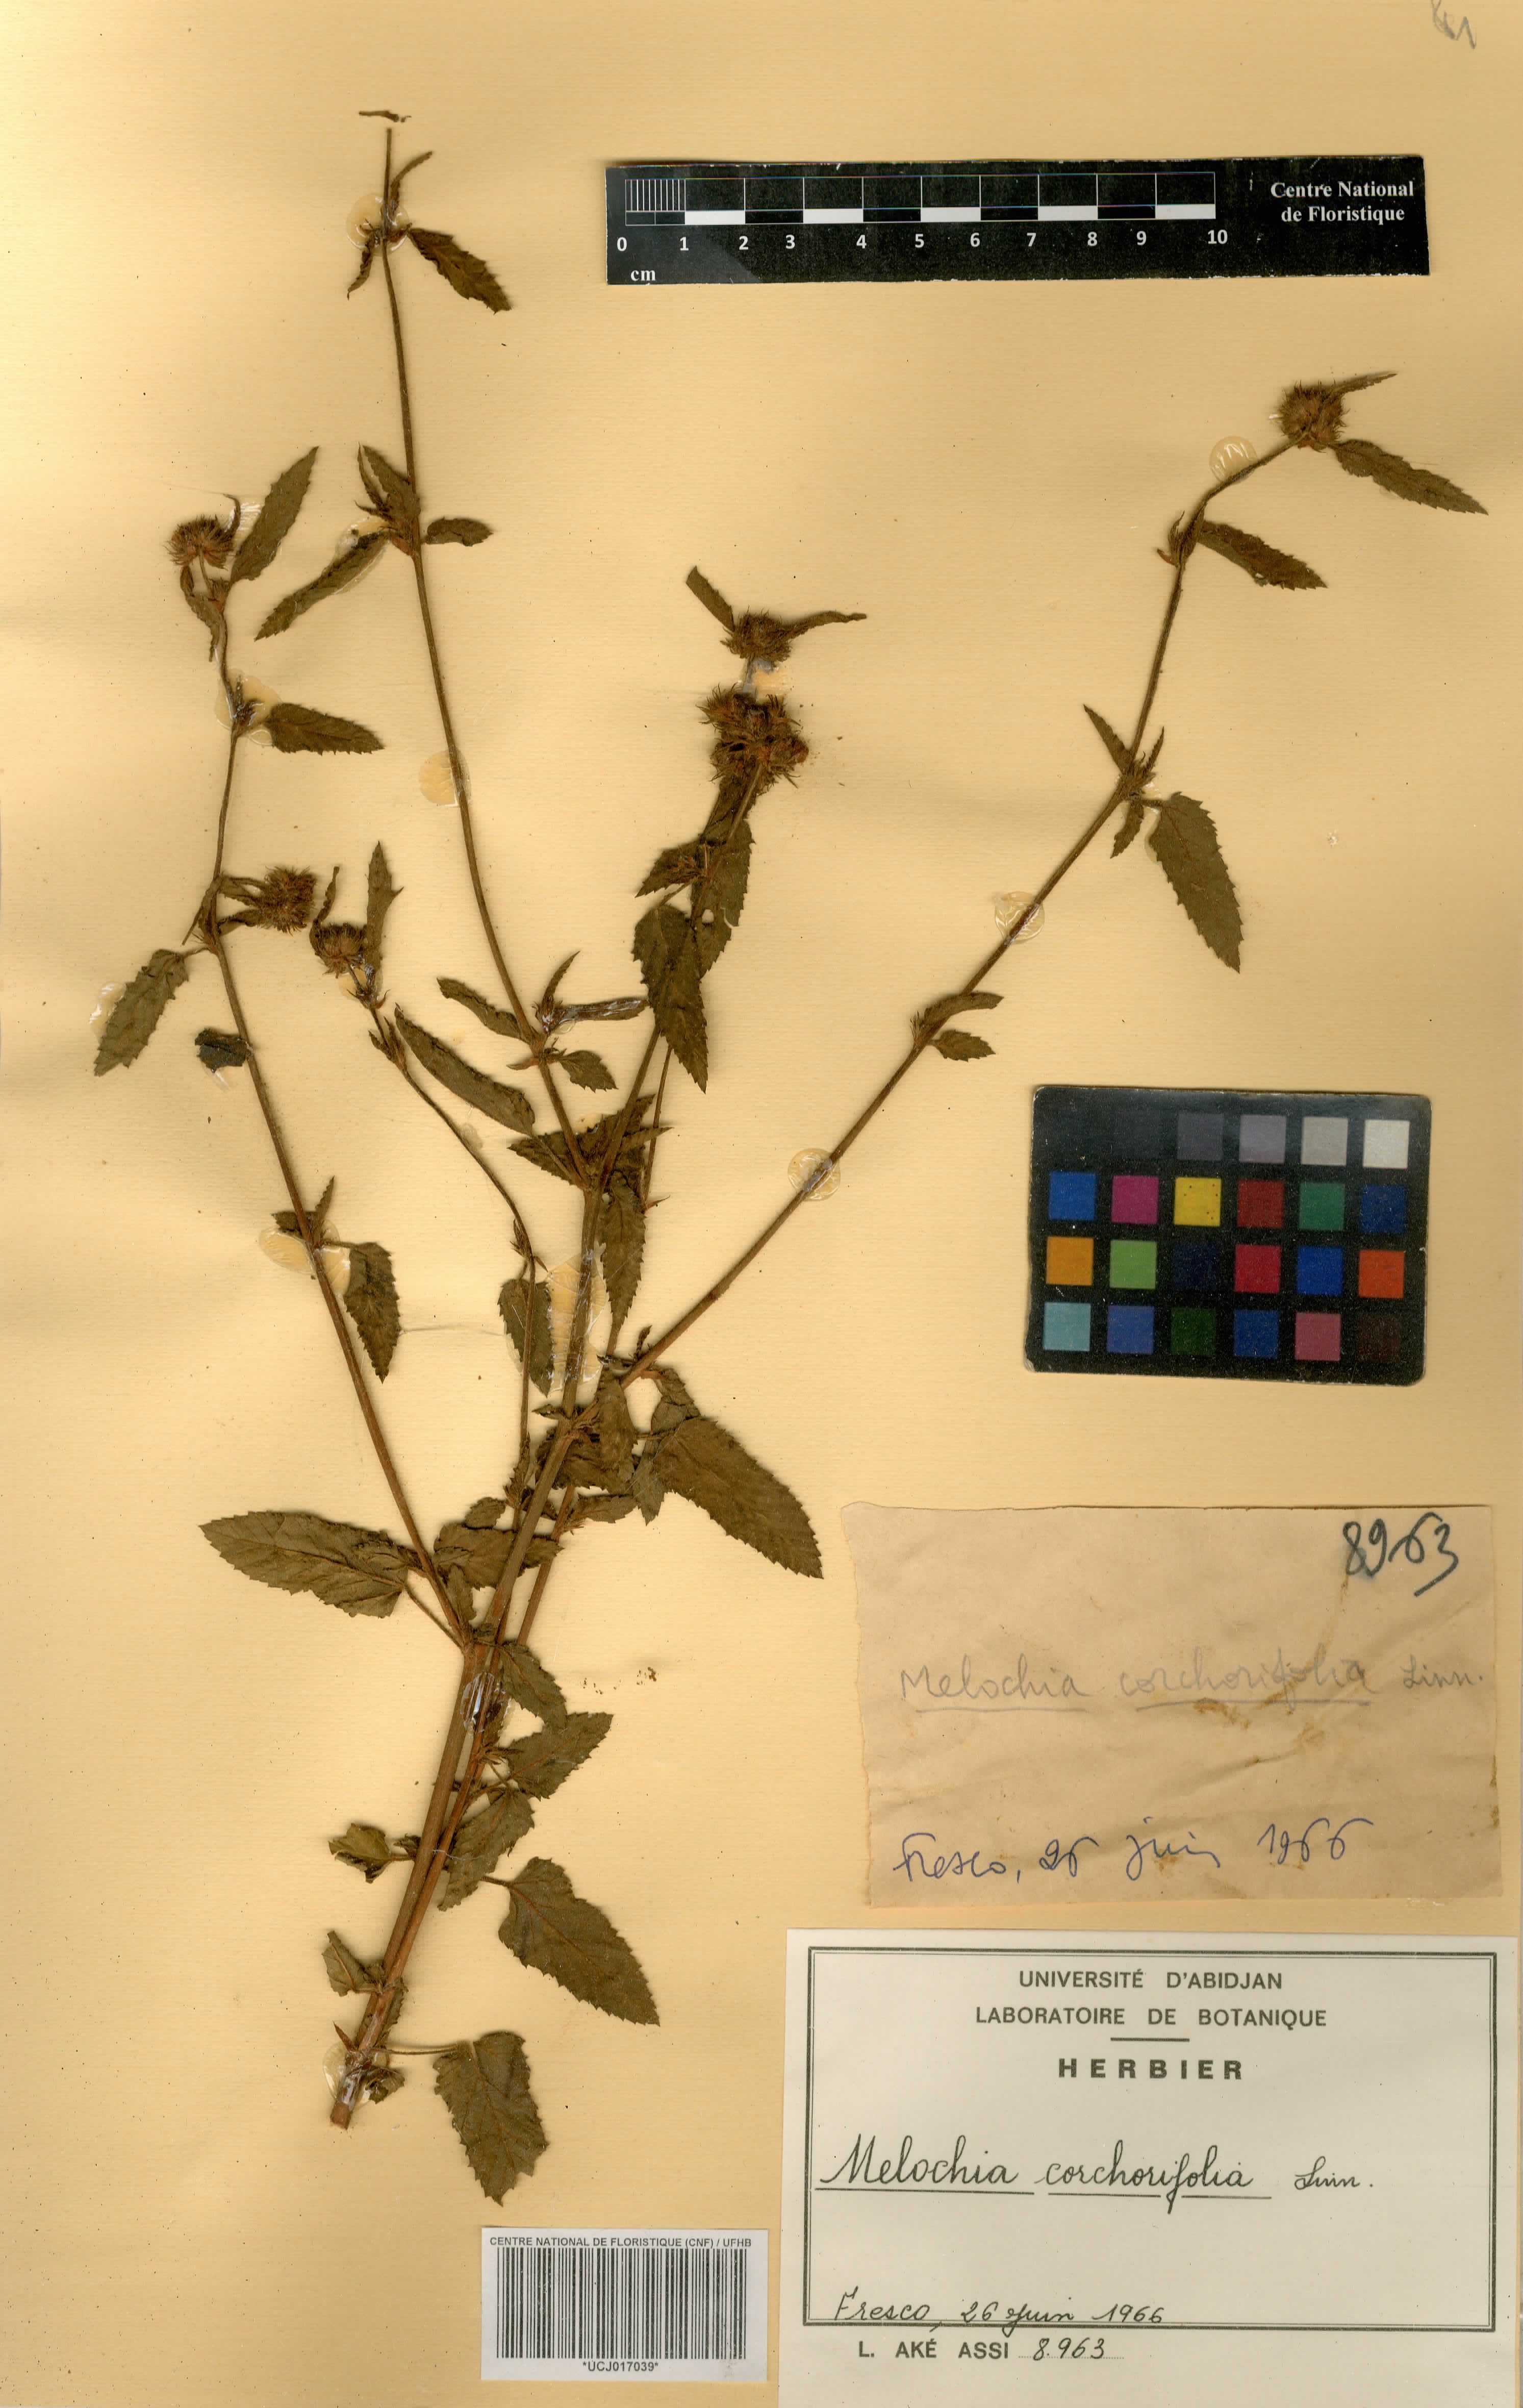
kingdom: Plantae
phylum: Tracheophyta
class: Magnoliopsida
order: Malvales
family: Malvaceae
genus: Melochia
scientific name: Melochia corchorifolia
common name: Chocolateweed
